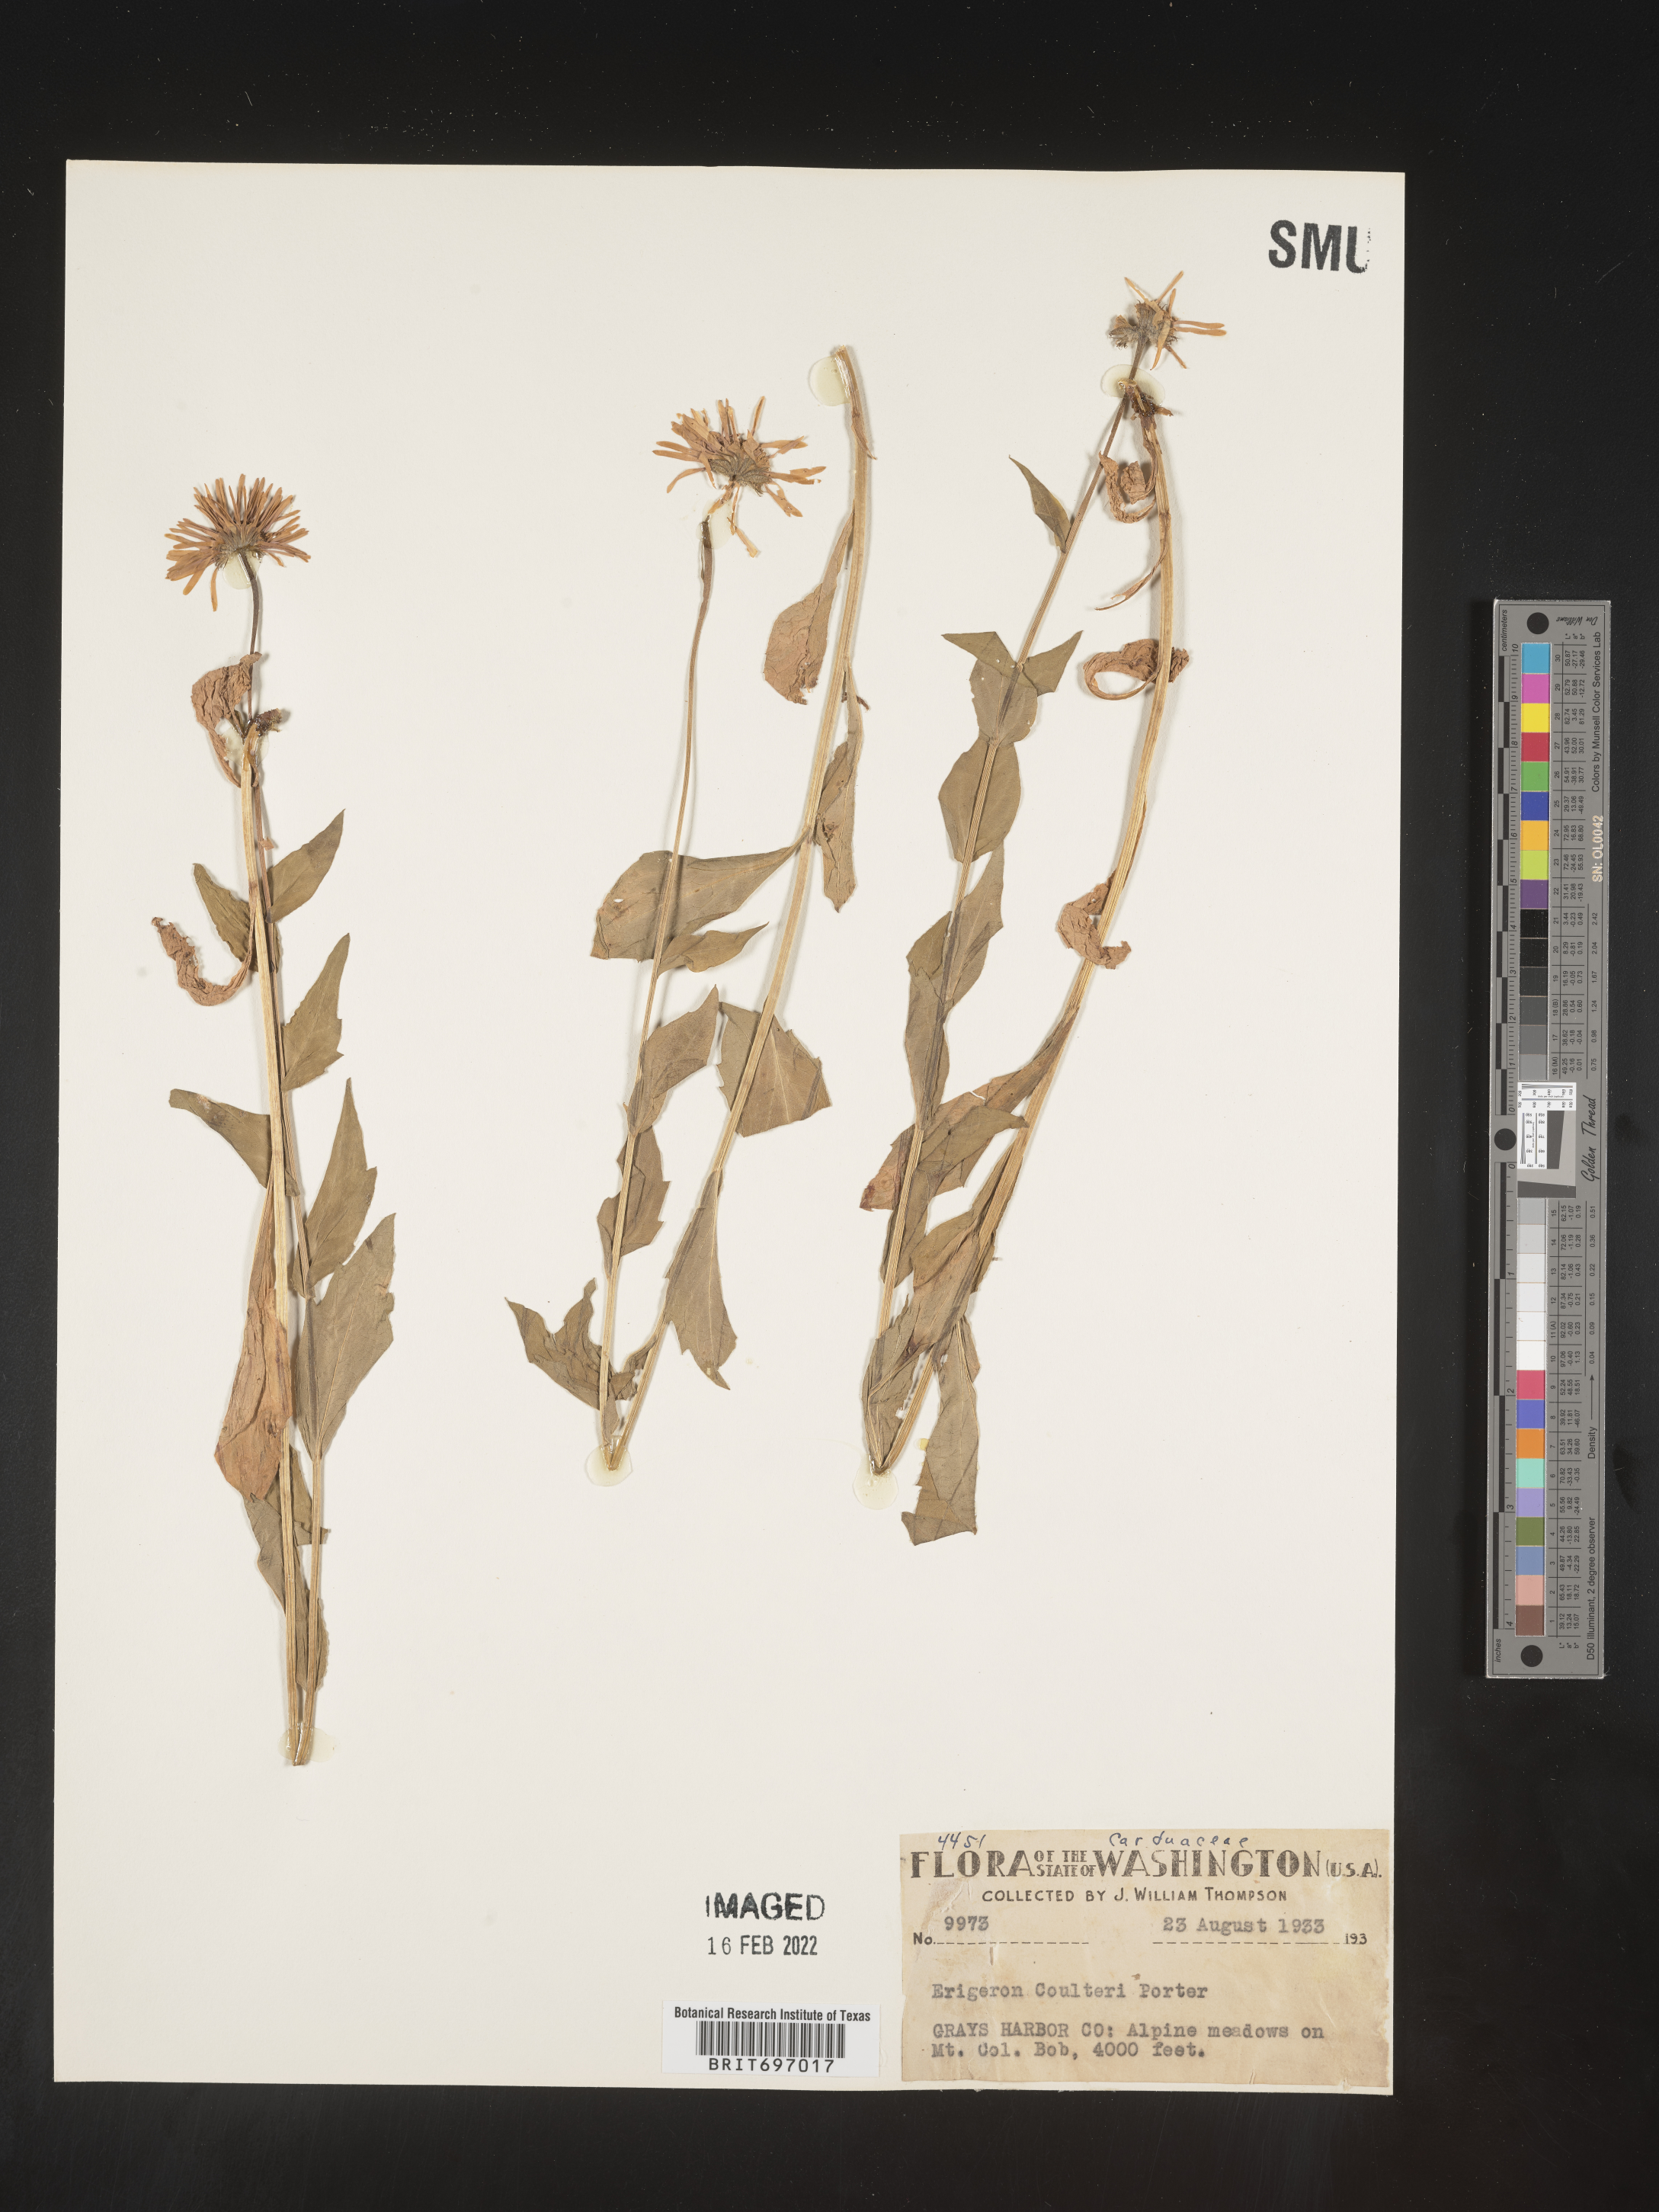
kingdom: Plantae
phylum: Tracheophyta
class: Magnoliopsida
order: Asterales
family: Asteraceae
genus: Erigeron
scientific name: Erigeron coulteri
